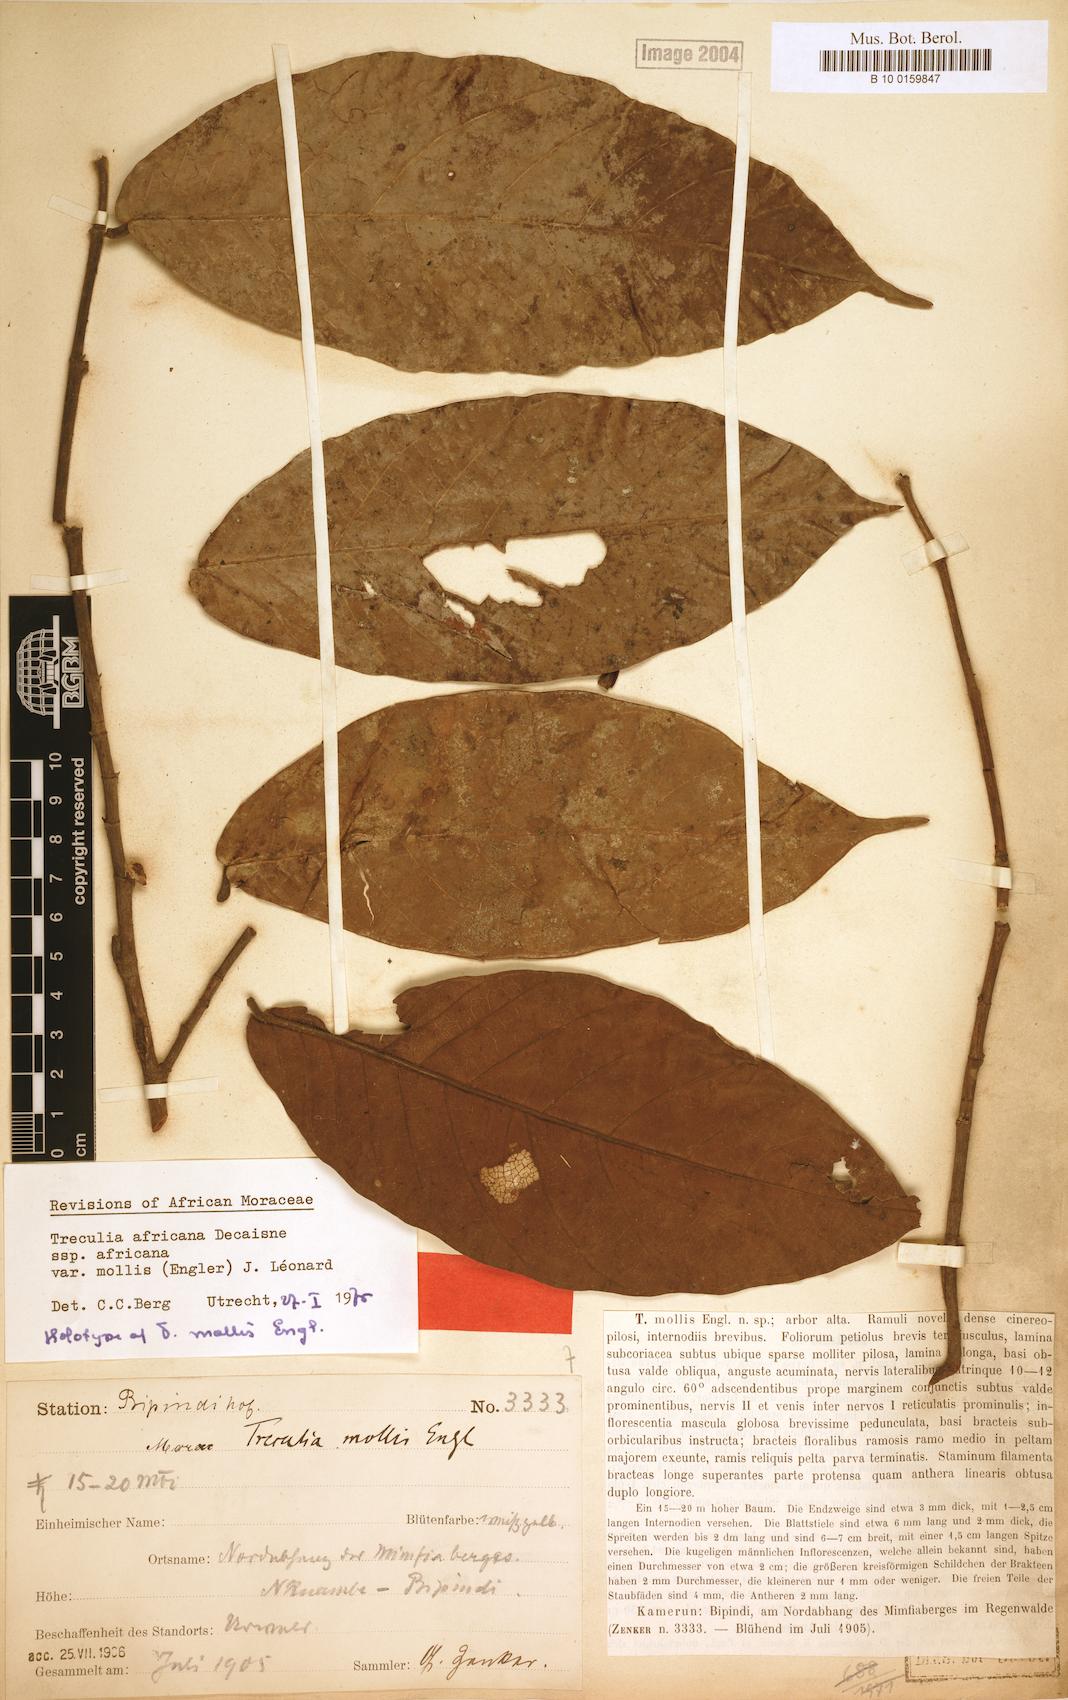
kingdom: Plantae
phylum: Tracheophyta
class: Magnoliopsida
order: Rosales
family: Moraceae
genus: Treculia
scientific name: Treculia africana
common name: African breadfruit
